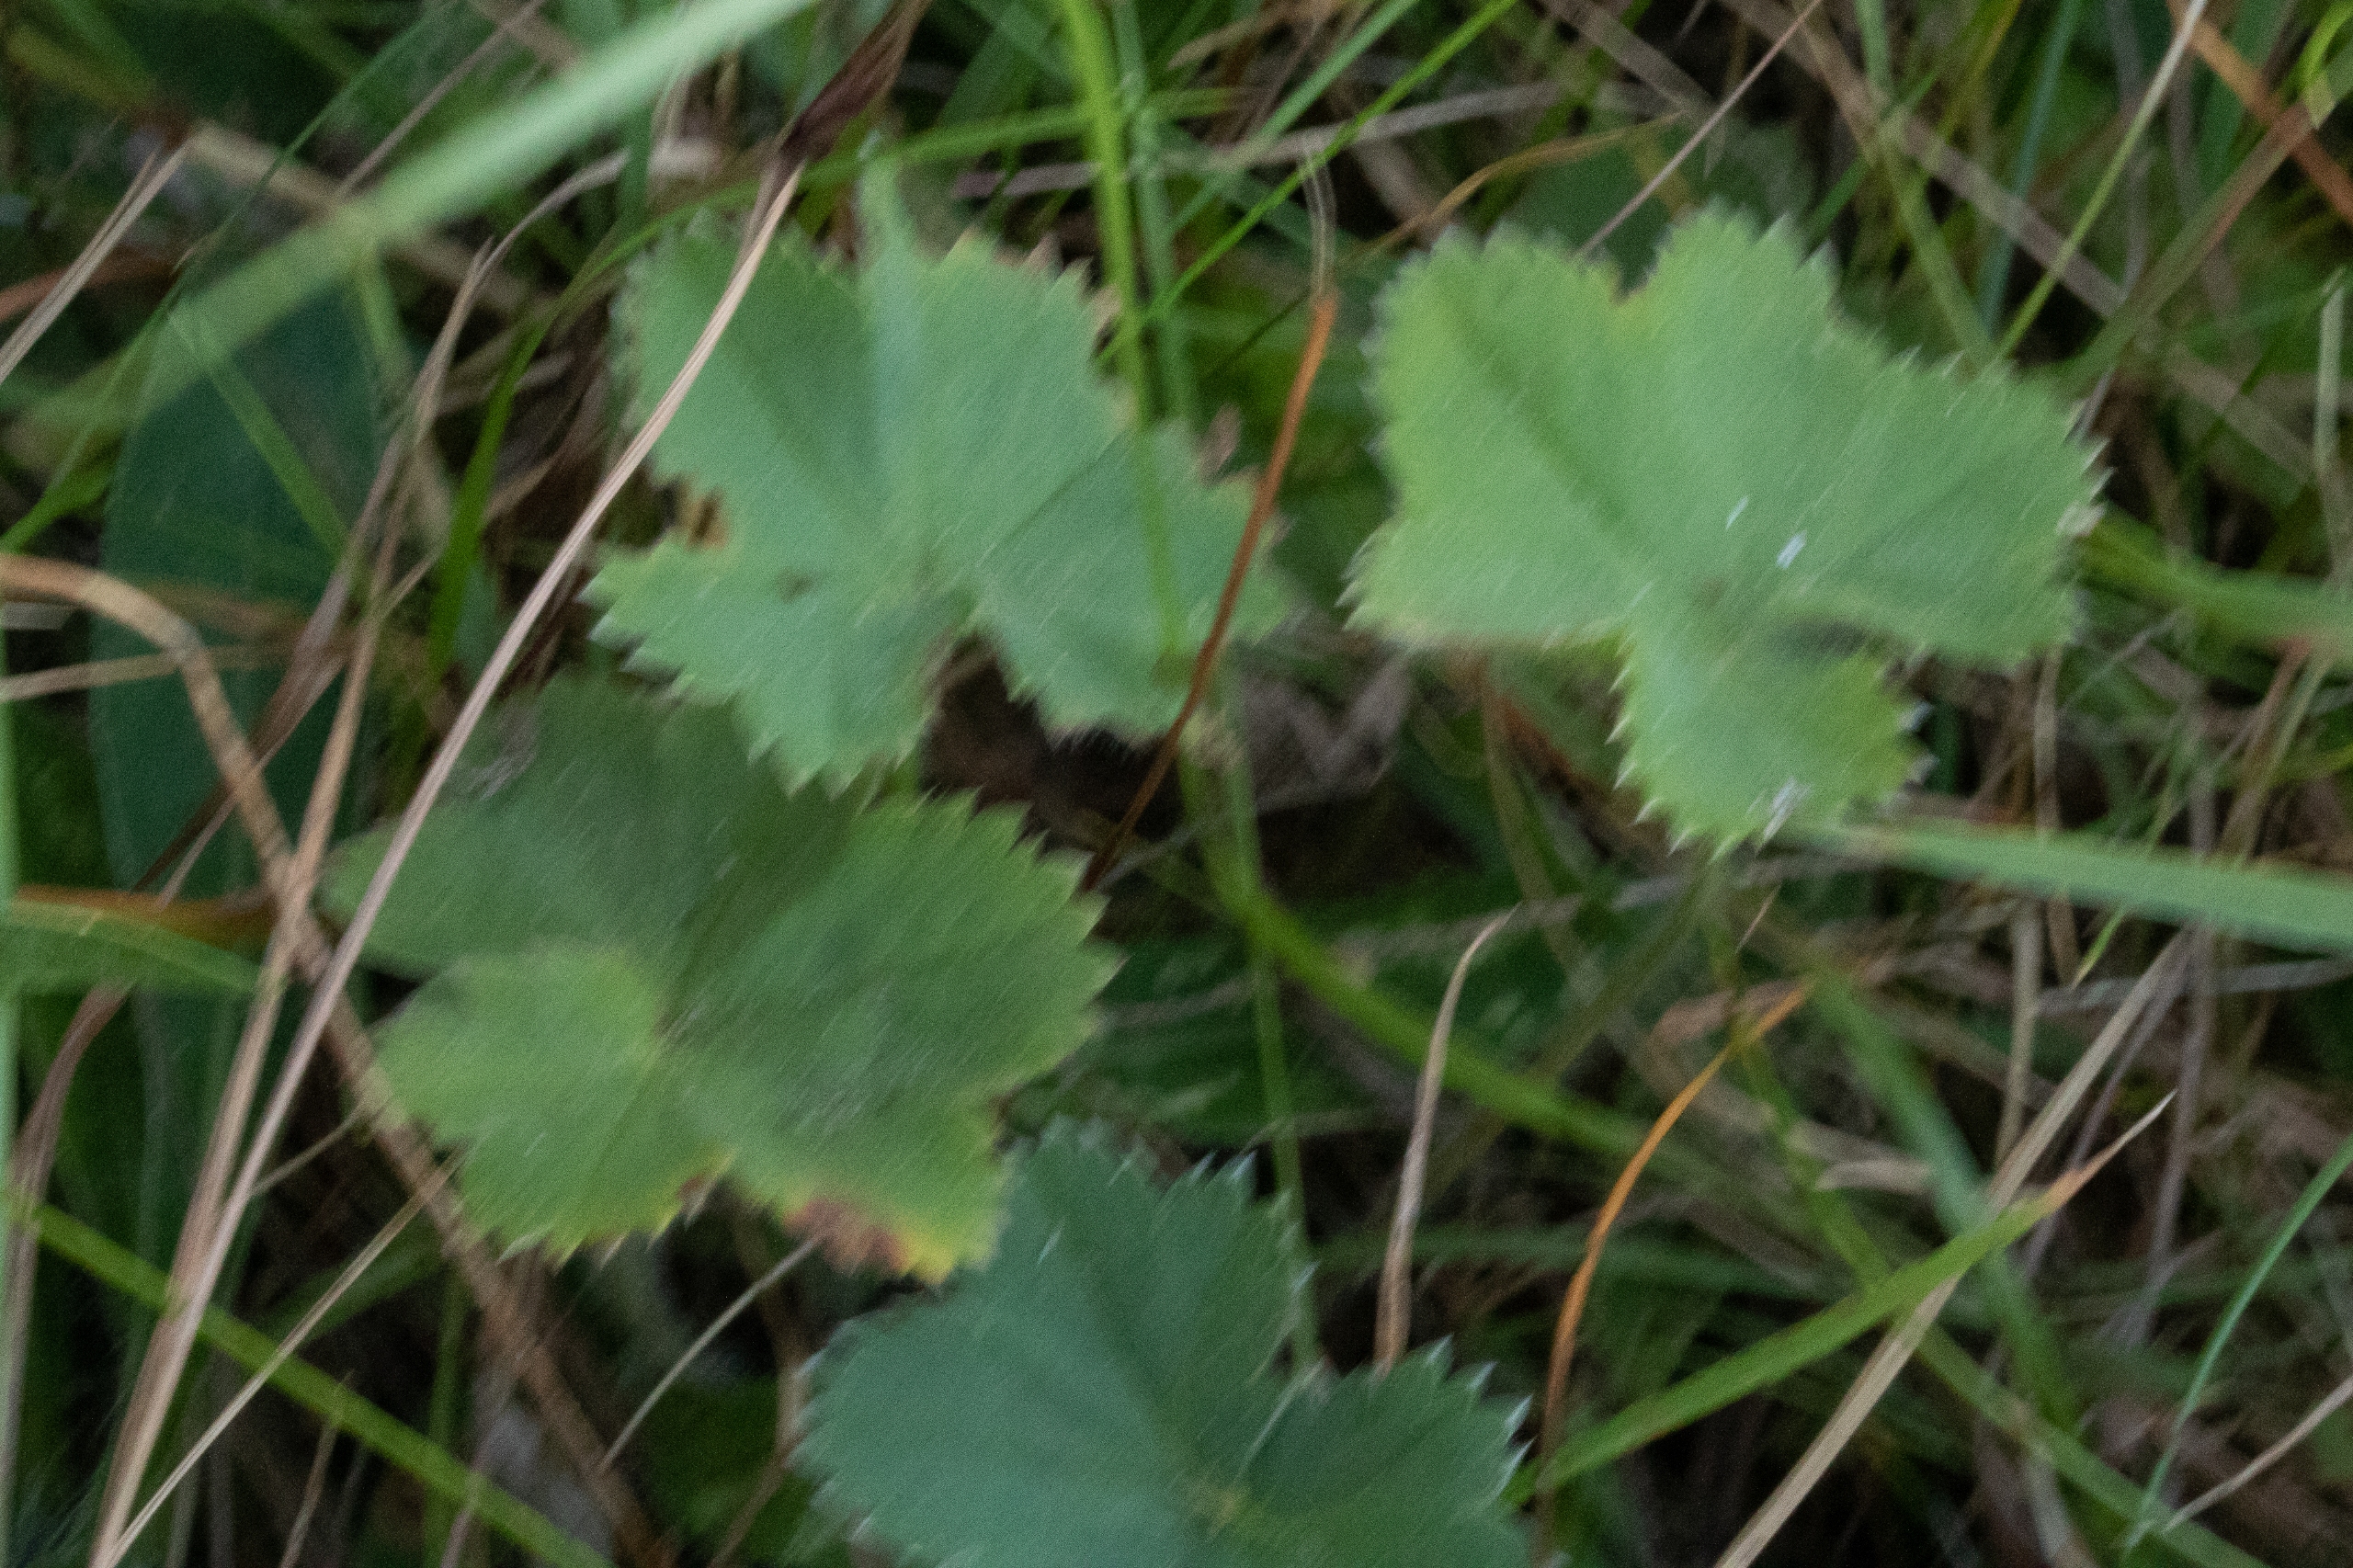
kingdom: Plantae
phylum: Tracheophyta
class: Magnoliopsida
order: Rosales
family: Rosaceae
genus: Alchemilla
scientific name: Alchemilla glaucescens
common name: Blågrøn løvefod
